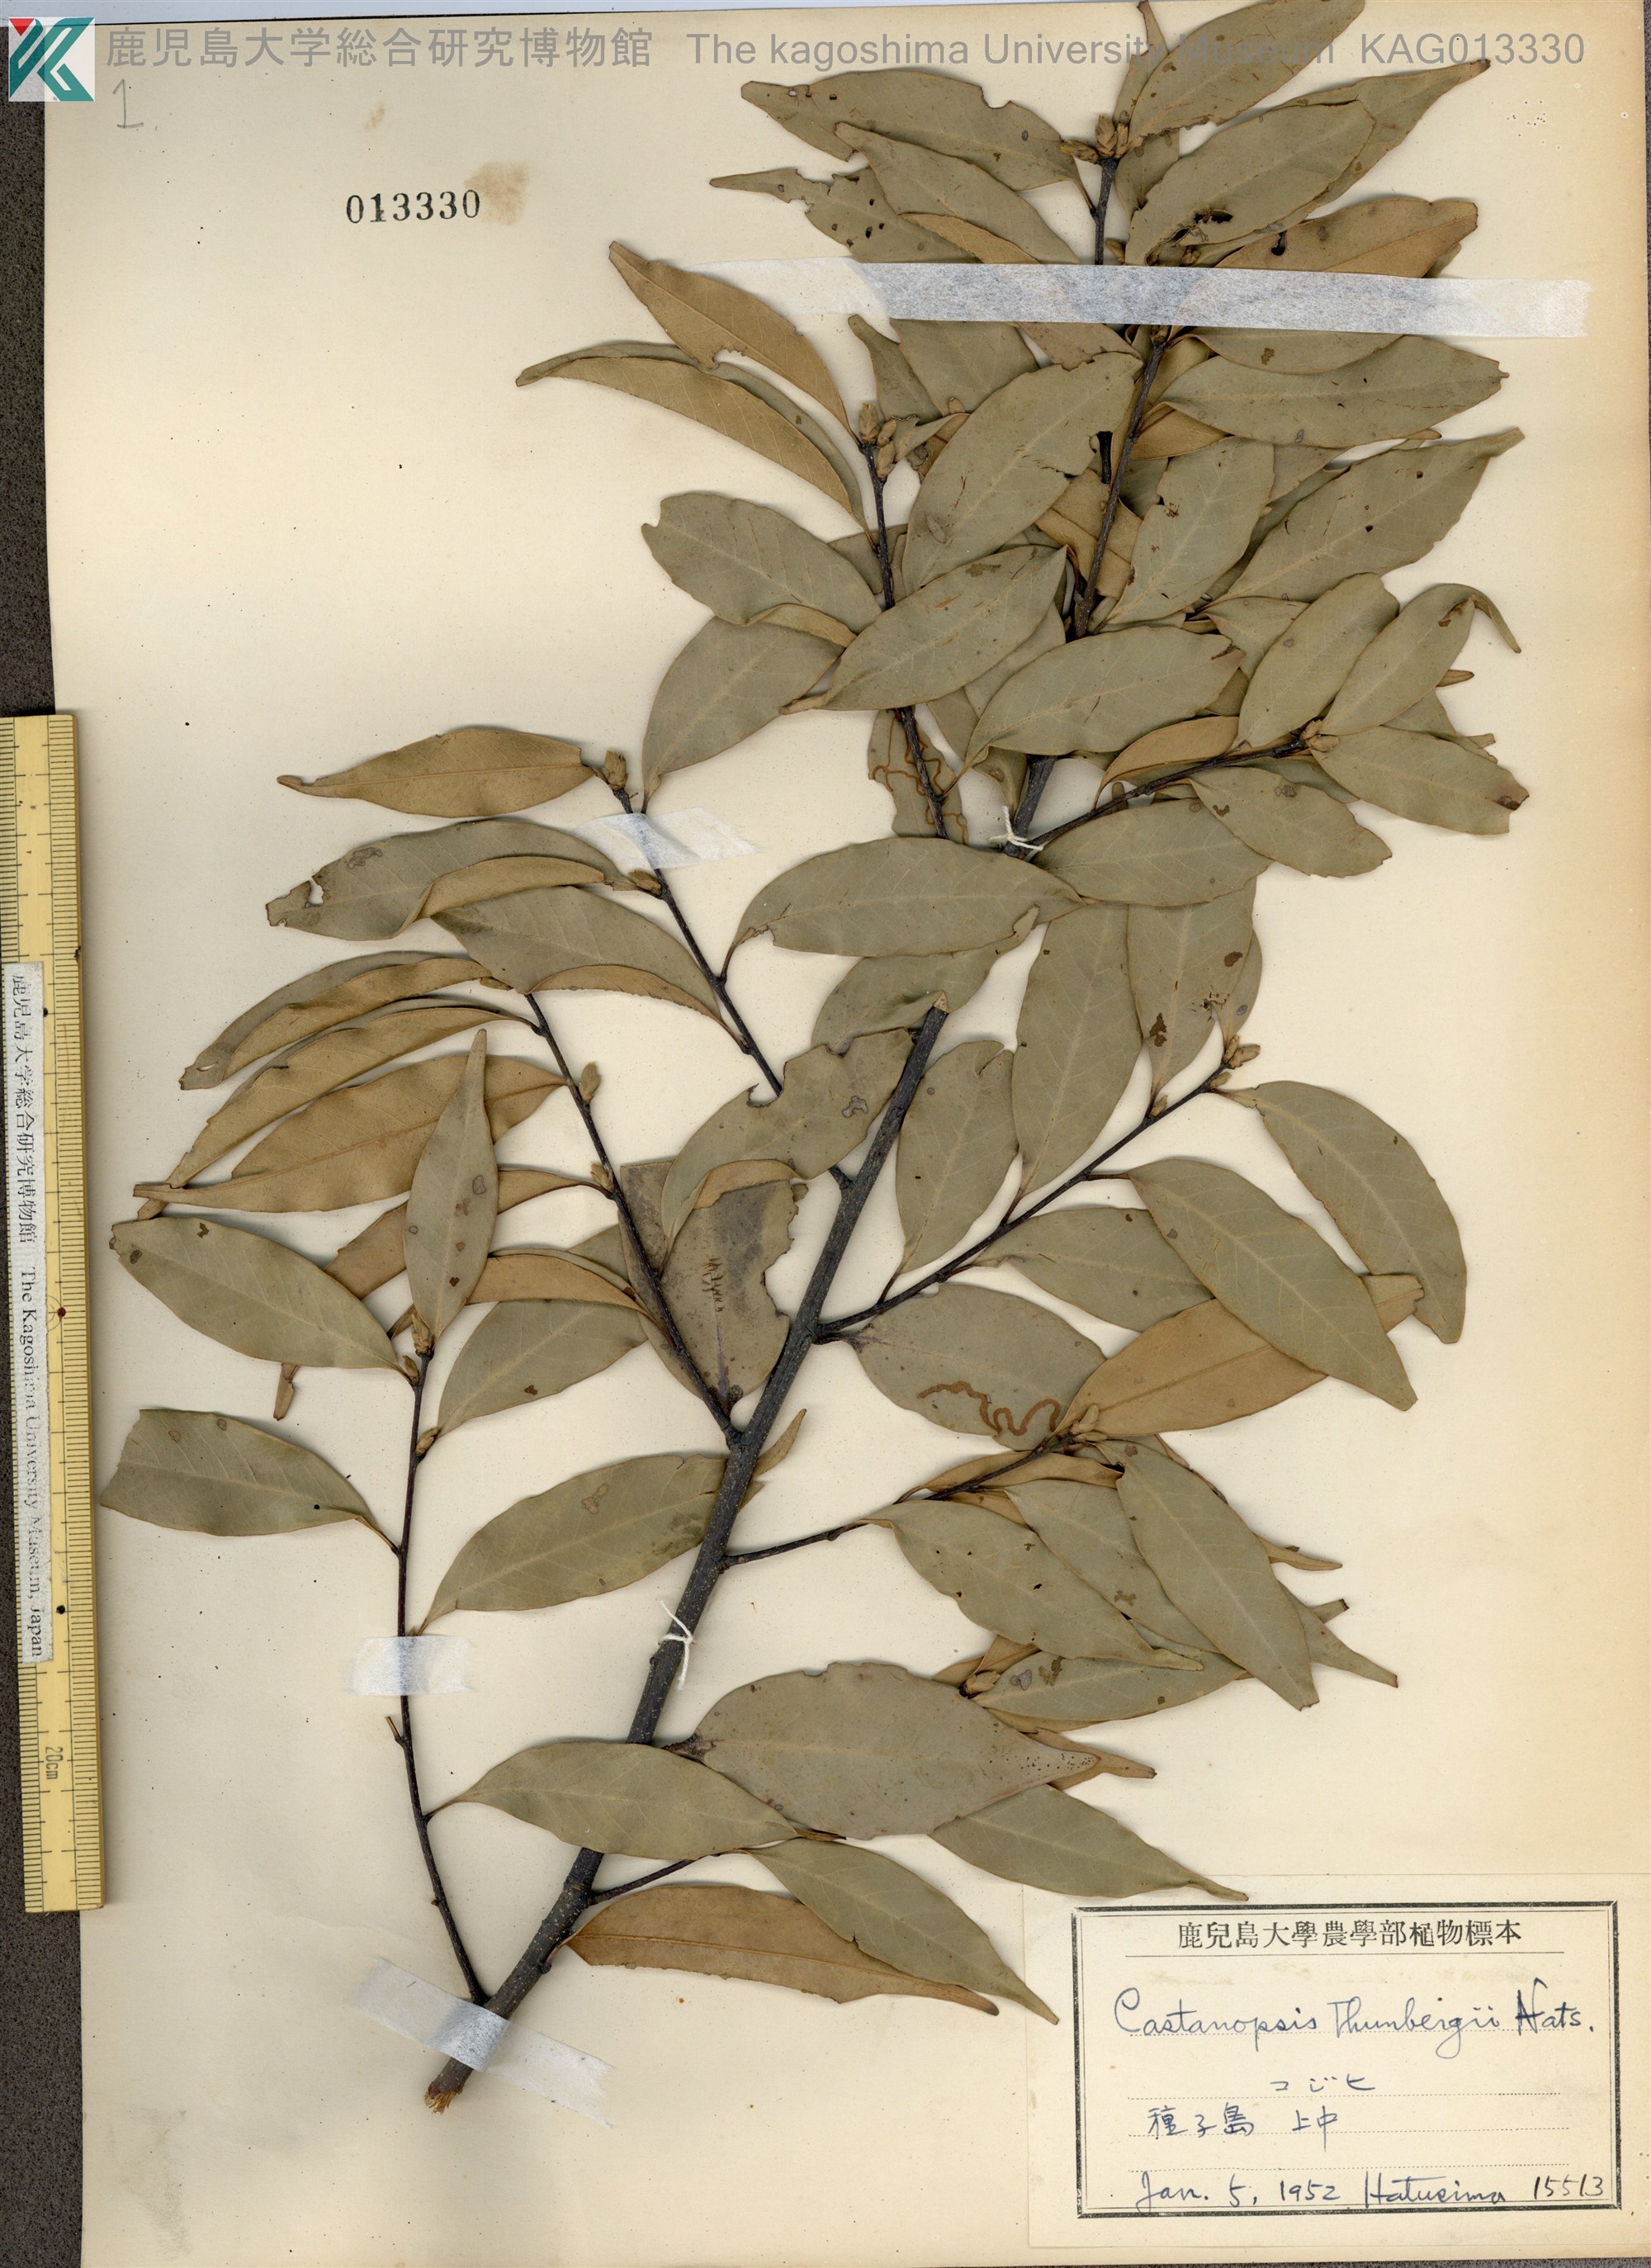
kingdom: Plantae
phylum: Tracheophyta
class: Magnoliopsida
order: Fagales
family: Fagaceae
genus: Castanopsis
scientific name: Castanopsis cuspidata
